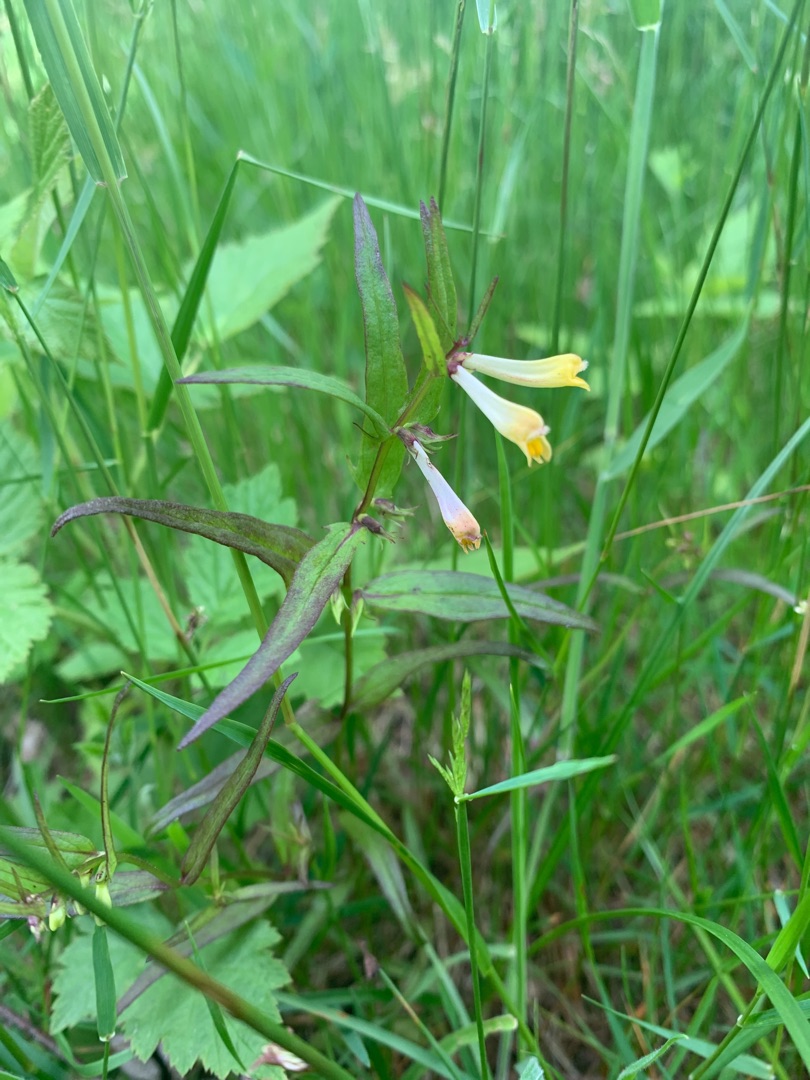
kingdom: Plantae
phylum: Tracheophyta
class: Magnoliopsida
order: Lamiales
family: Orobanchaceae
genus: Melampyrum
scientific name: Melampyrum pratense
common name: Almindelig kohvede
